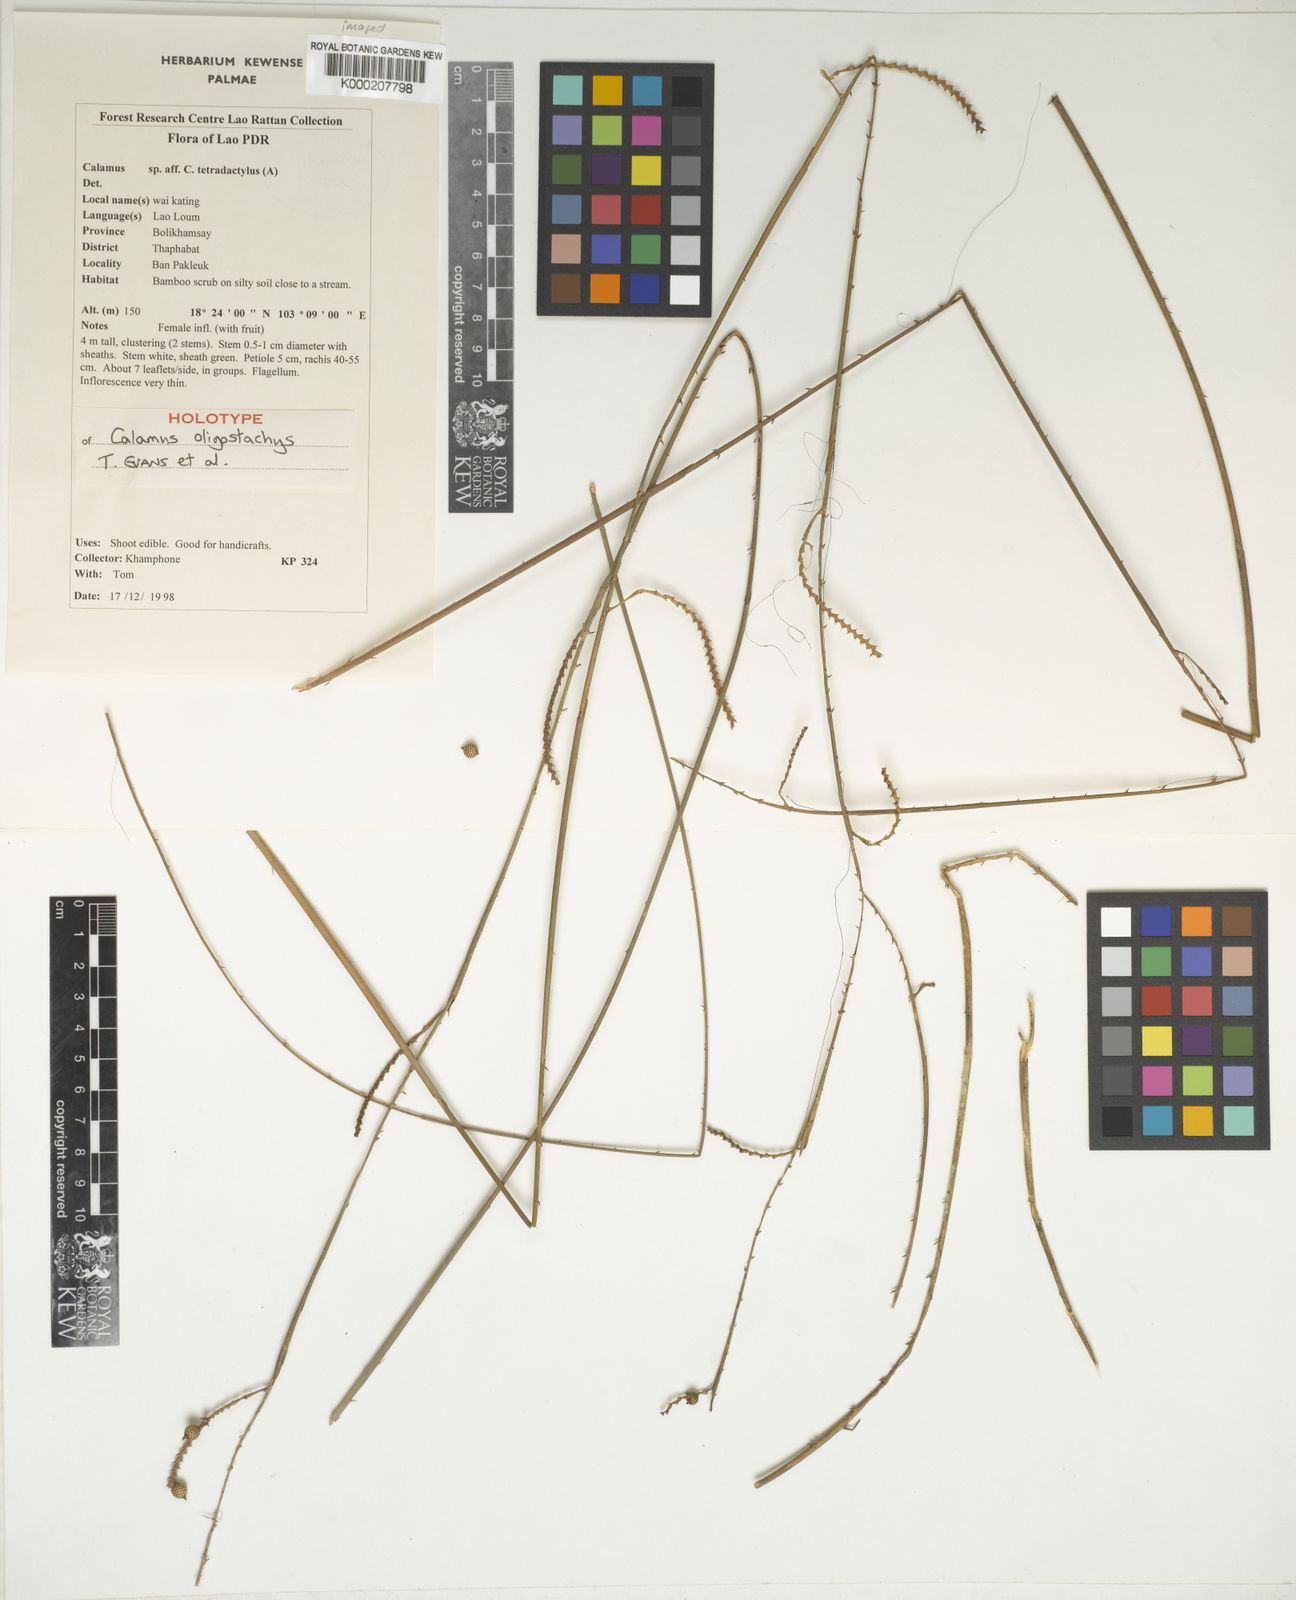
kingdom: Plantae
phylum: Tracheophyta
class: Liliopsida
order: Arecales
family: Arecaceae
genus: Calamus
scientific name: Calamus oligostachys
